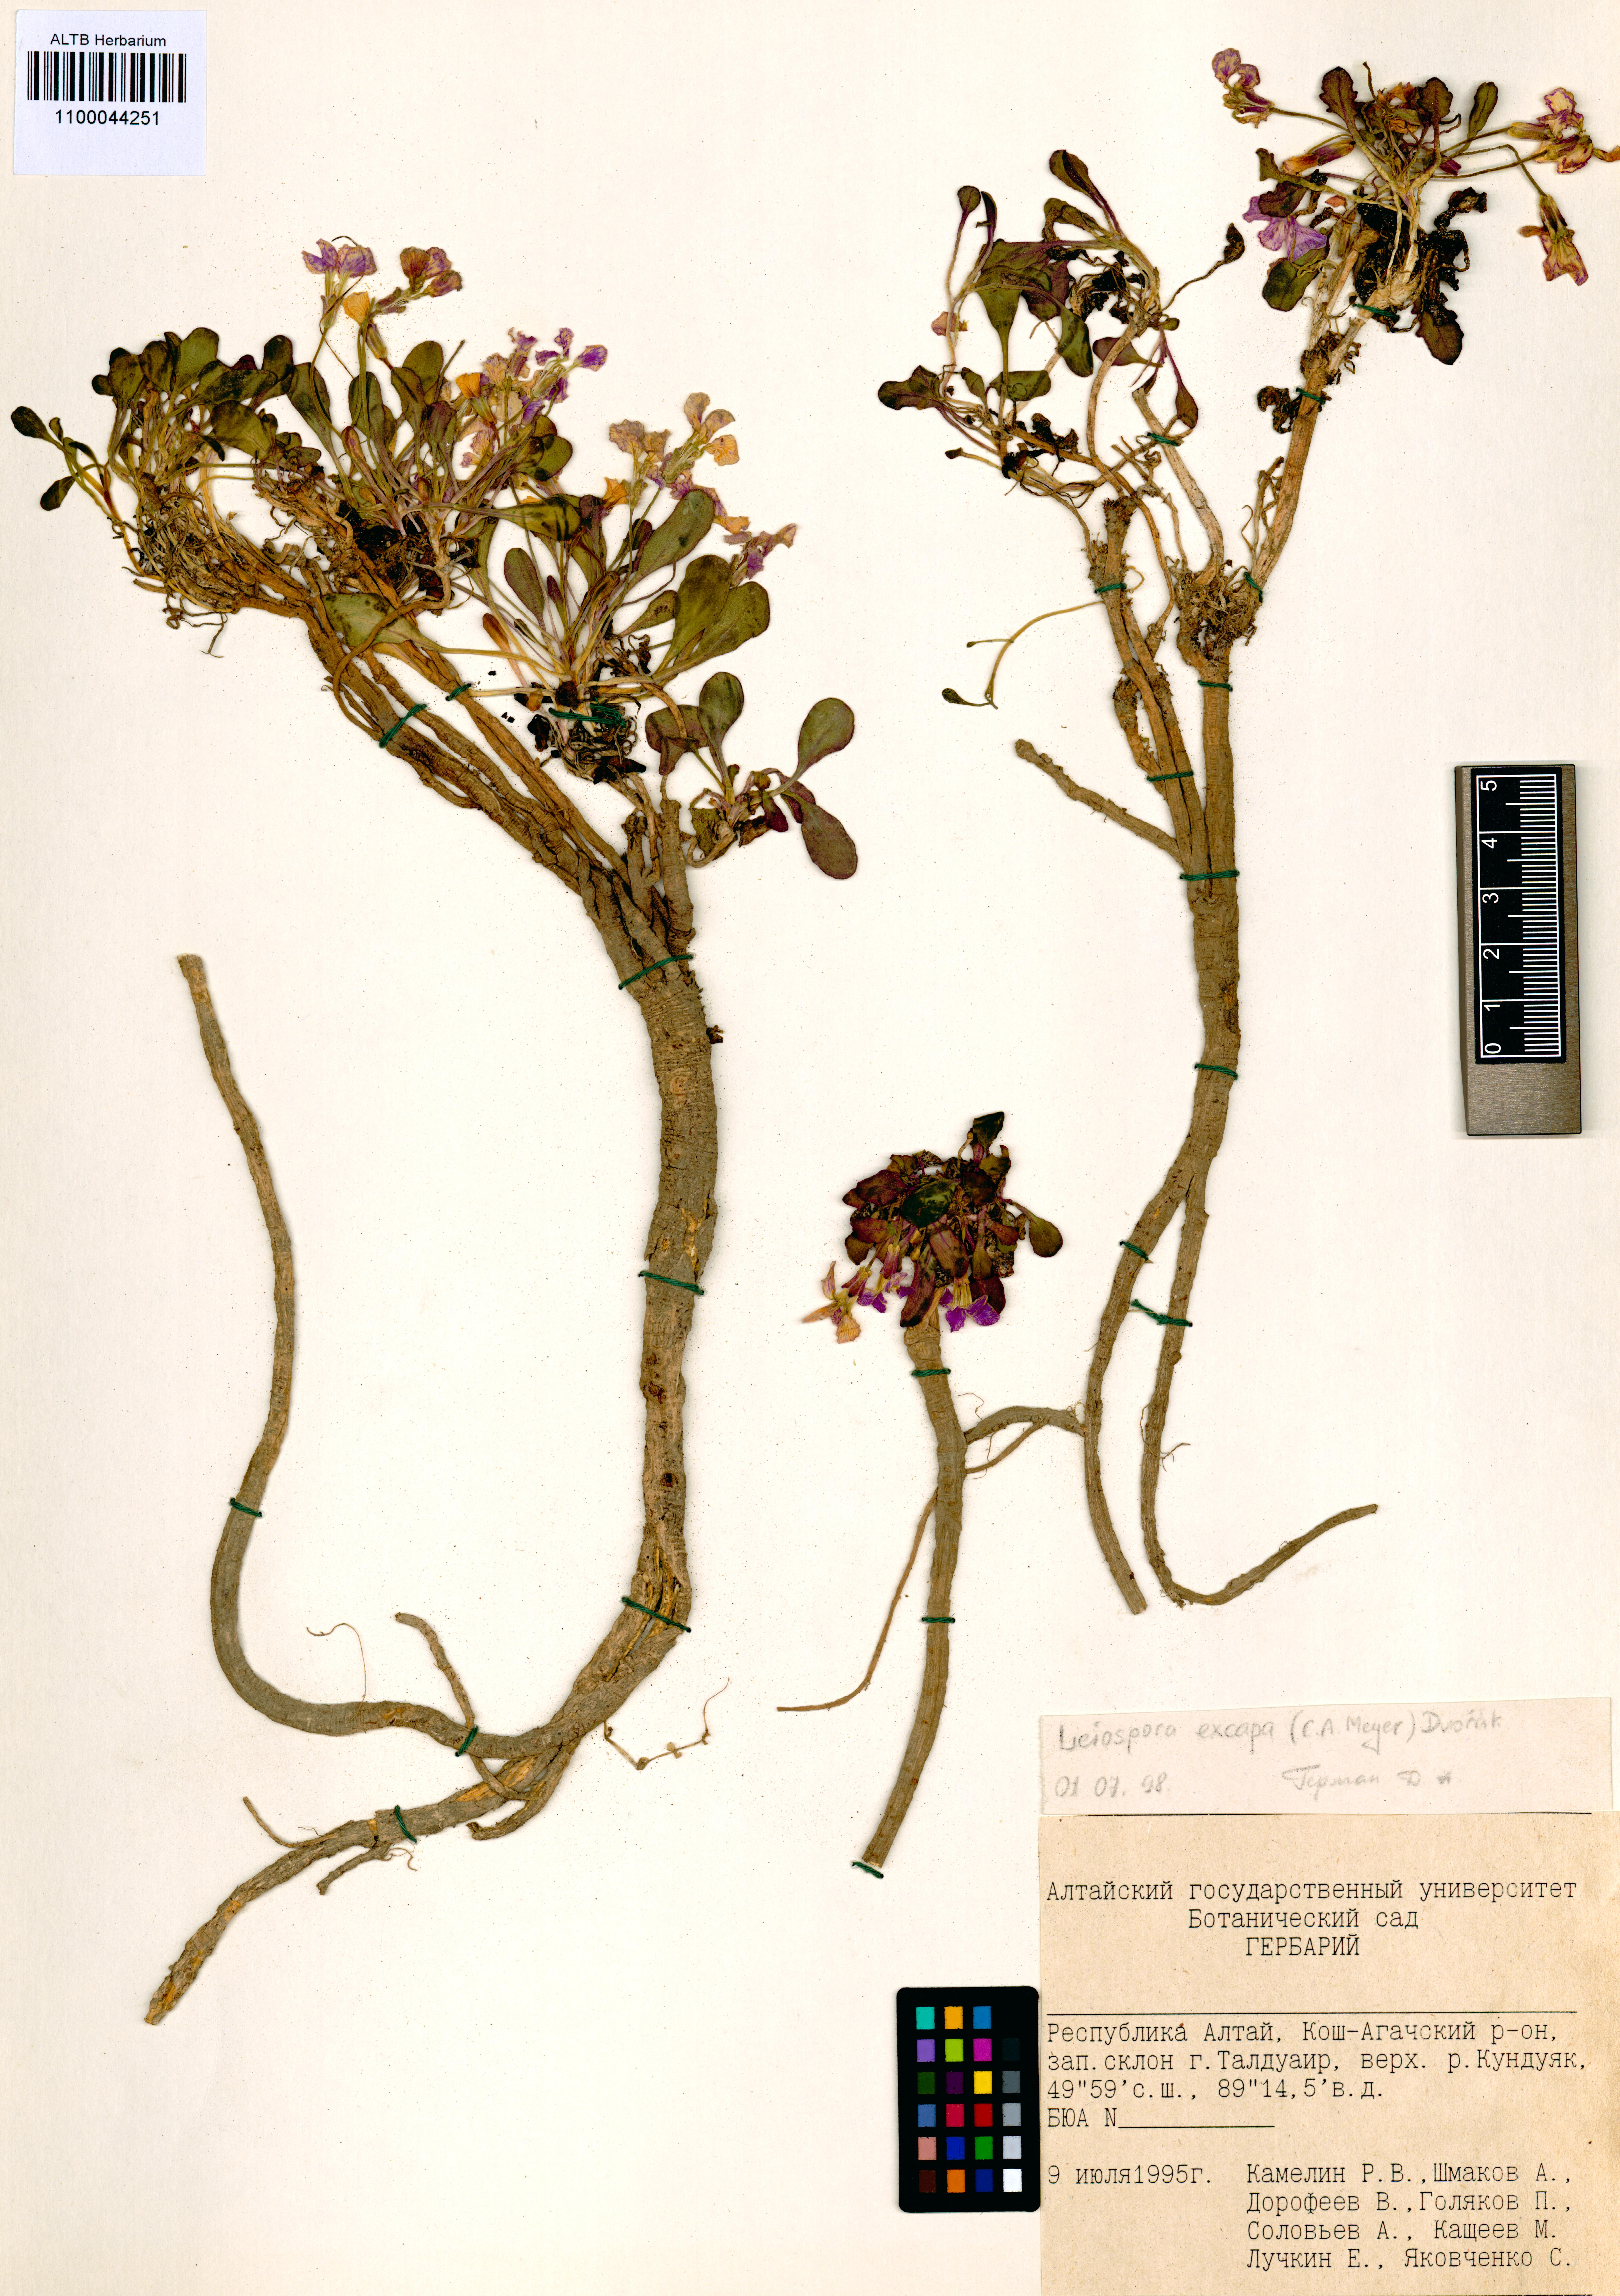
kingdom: Plantae
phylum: Tracheophyta
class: Magnoliopsida
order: Brassicales
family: Brassicaceae
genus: Leiospora
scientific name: Leiospora exscapa
